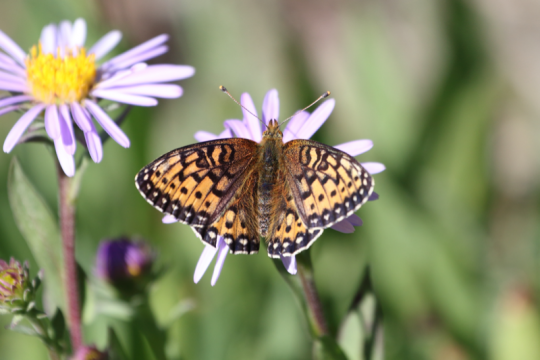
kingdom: Animalia
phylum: Arthropoda
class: Insecta
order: Lepidoptera
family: Nymphalidae
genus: Speyeria
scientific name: Speyeria mormonia
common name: Mormon Fritillary
